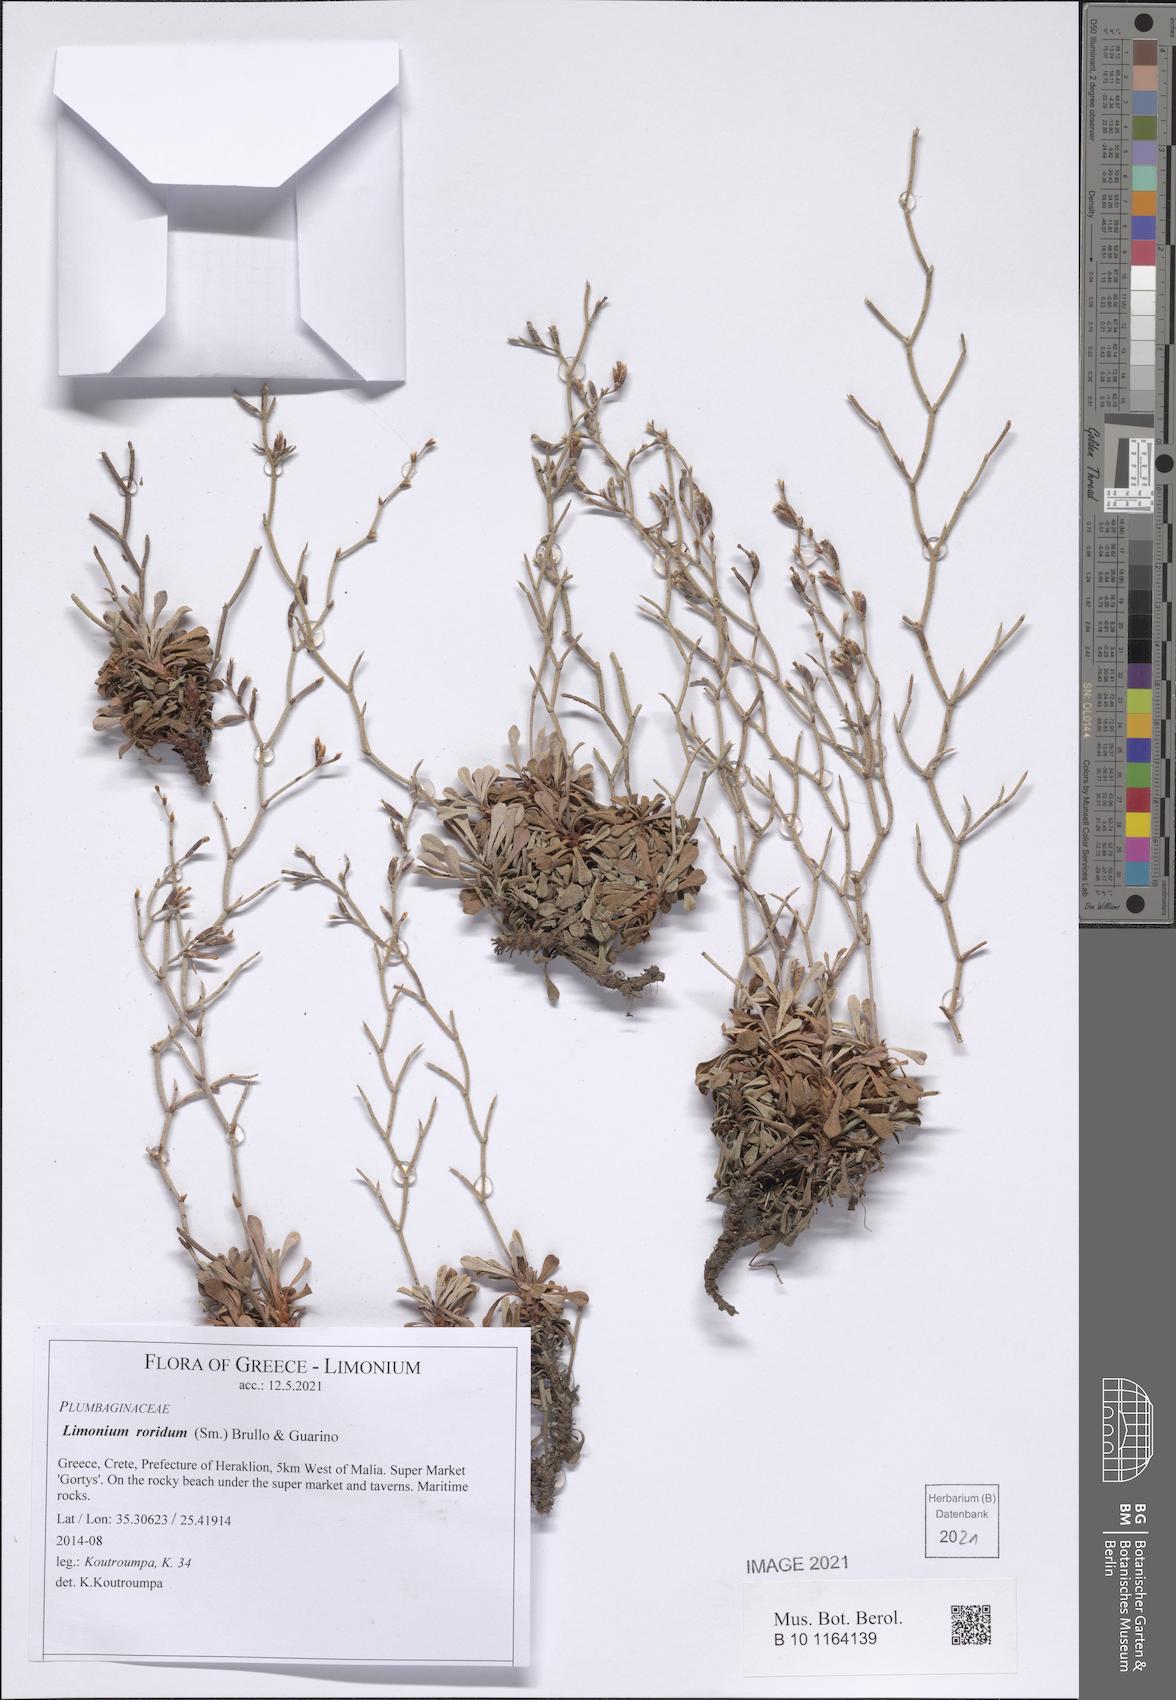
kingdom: Plantae
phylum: Tracheophyta
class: Magnoliopsida
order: Caryophyllales
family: Plumbaginaceae
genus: Limonium
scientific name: Limonium roridum
